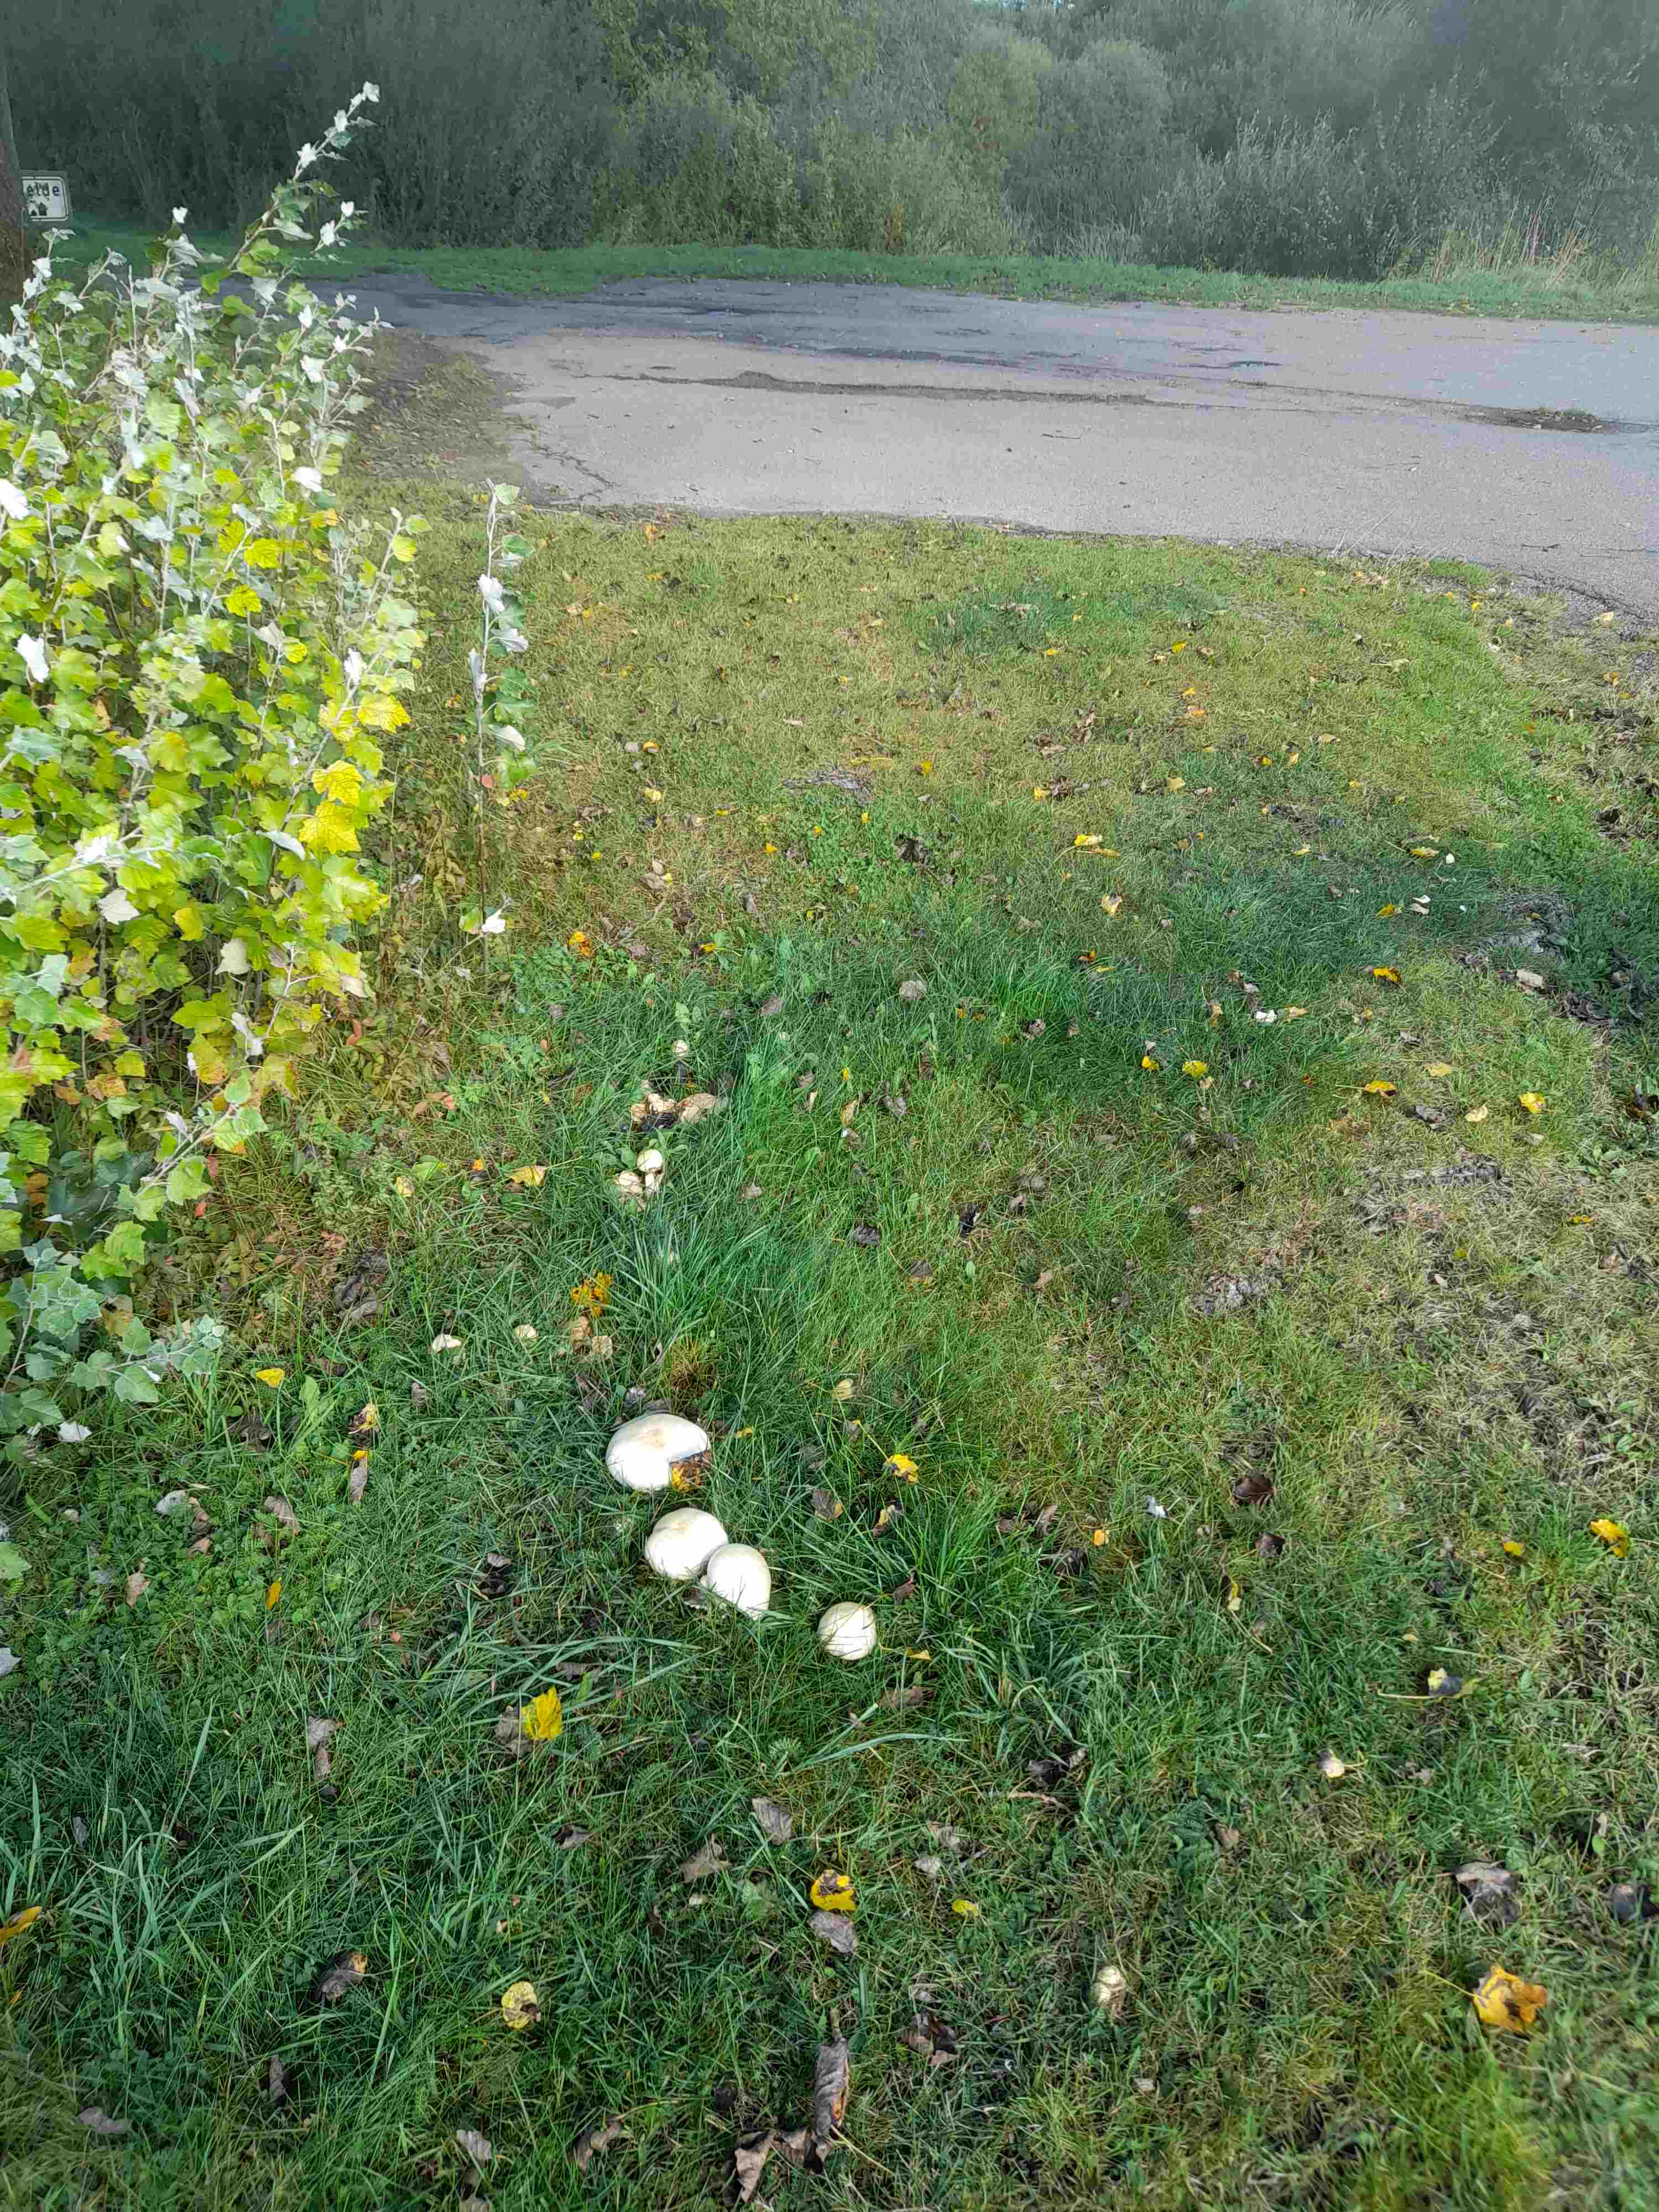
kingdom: Fungi
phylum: Basidiomycota
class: Agaricomycetes
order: Agaricales
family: Agaricaceae
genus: Agaricus
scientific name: Agaricus arvensis
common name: ager-champignon
